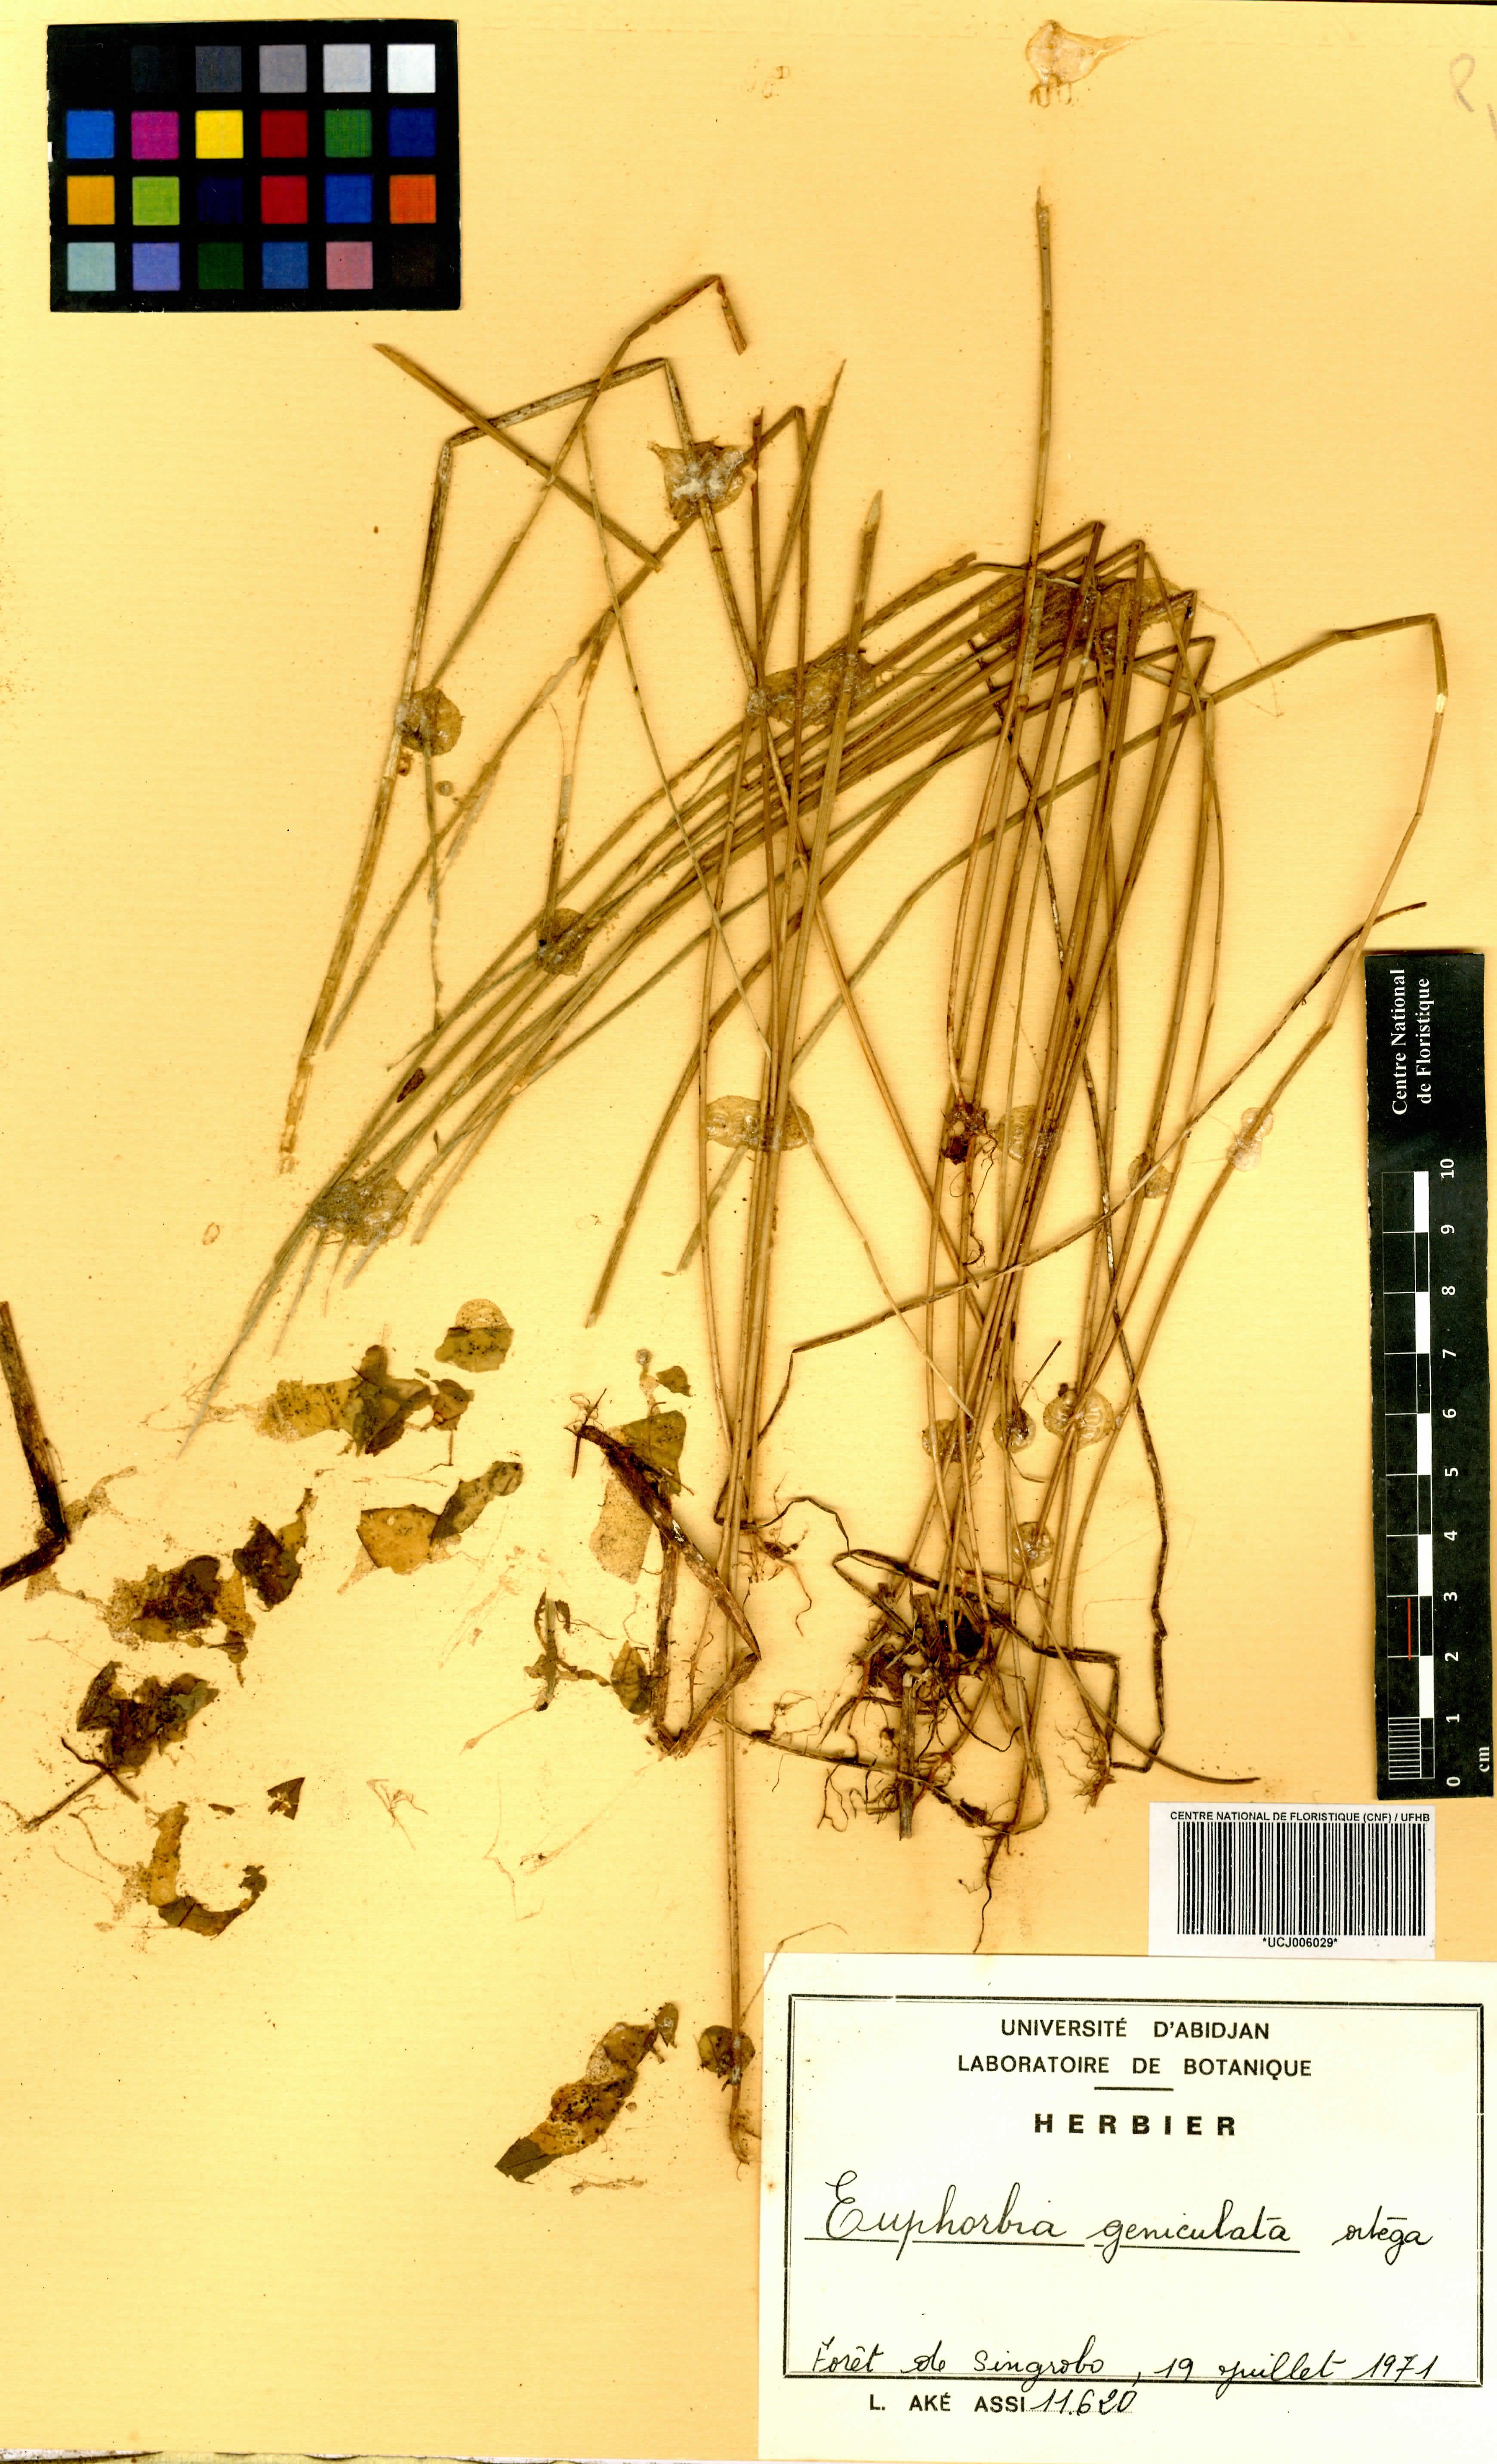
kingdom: Plantae
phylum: Tracheophyta
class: Magnoliopsida
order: Malpighiales
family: Euphorbiaceae
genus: Euphorbia
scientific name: Euphorbia heterophylla
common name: Mexican fireplant
